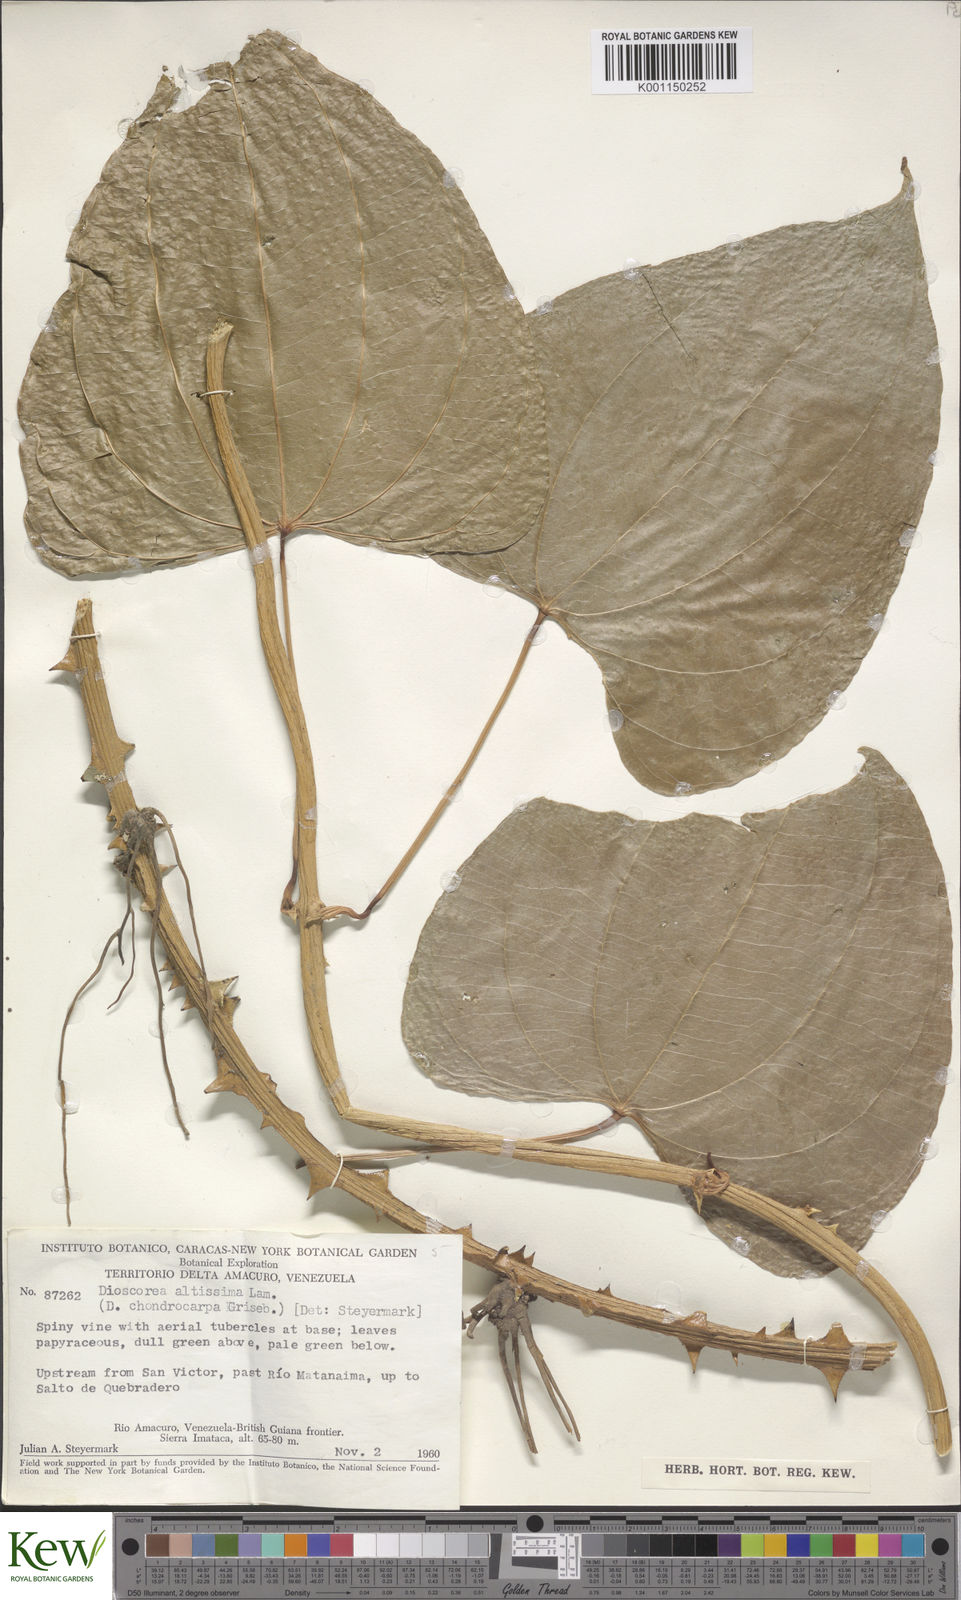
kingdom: Plantae
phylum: Tracheophyta
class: Liliopsida
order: Dioscoreales
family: Dioscoreaceae
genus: Dioscorea
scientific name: Dioscorea chondrocarpa
